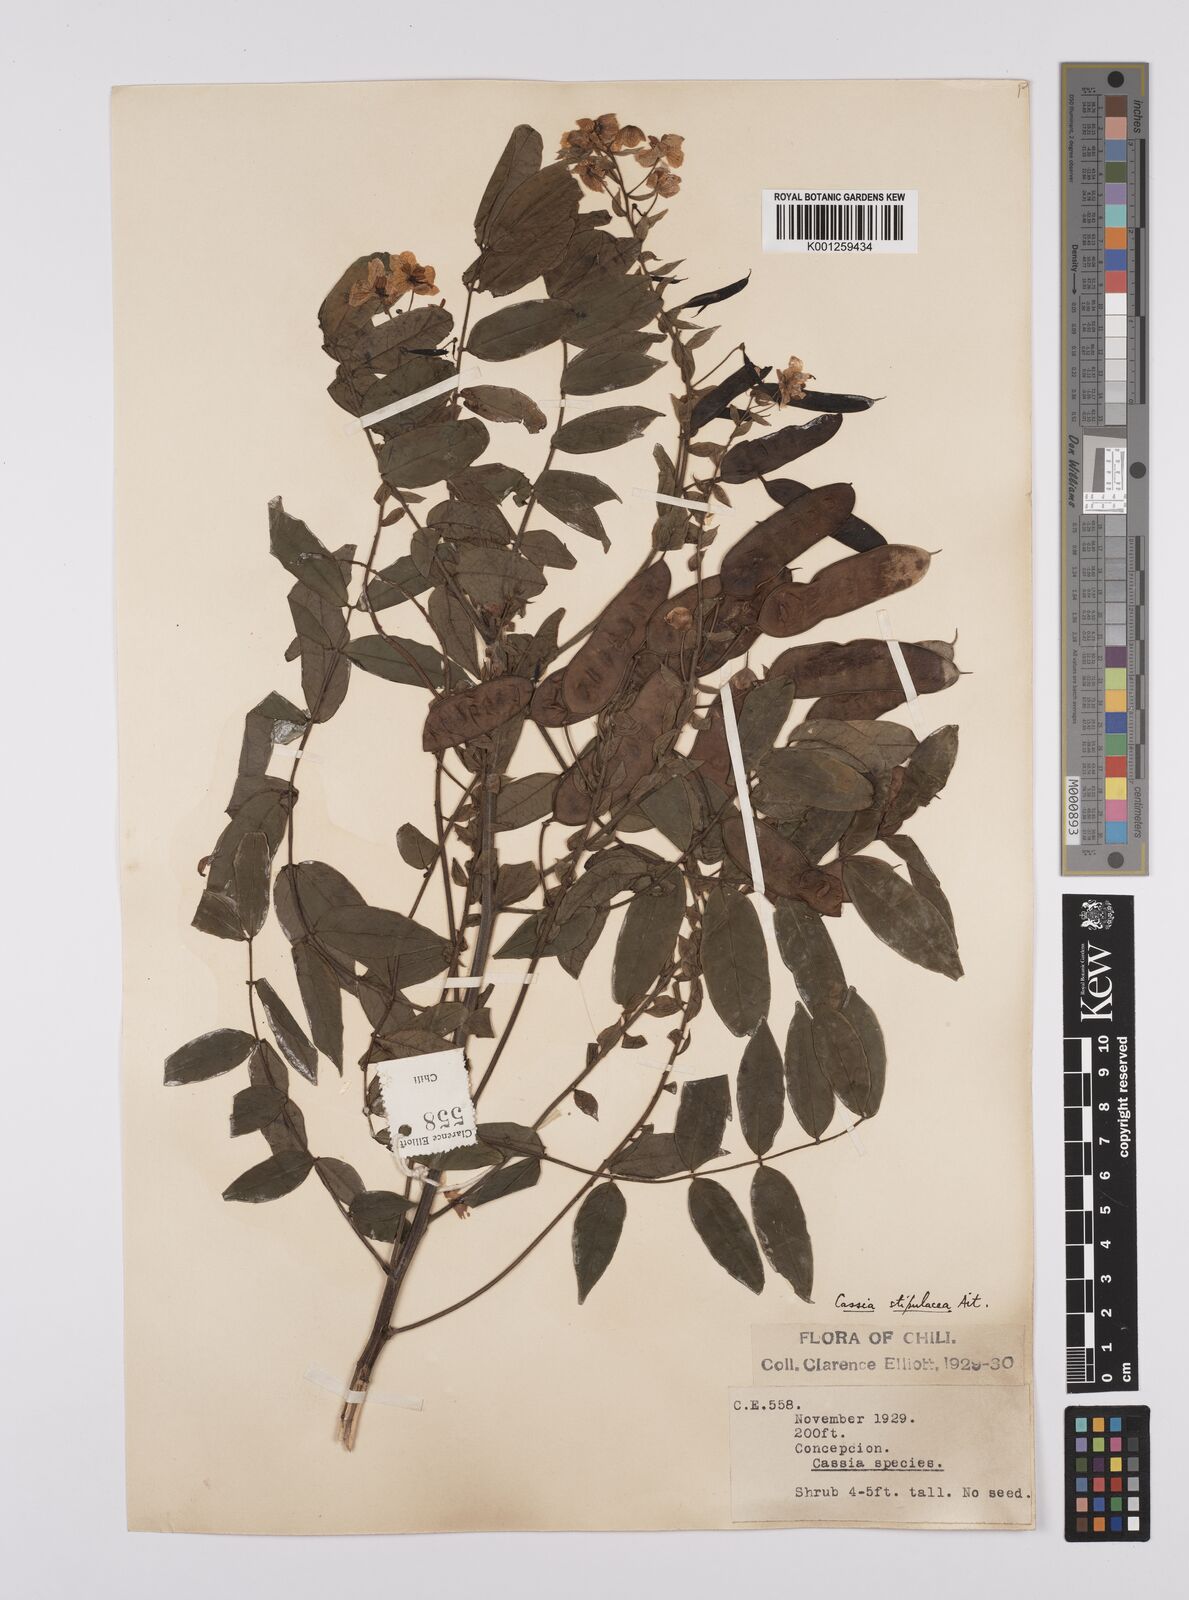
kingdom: Plantae
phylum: Tracheophyta
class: Magnoliopsida
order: Fabales
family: Fabaceae
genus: Senna
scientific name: Senna stipulacea
